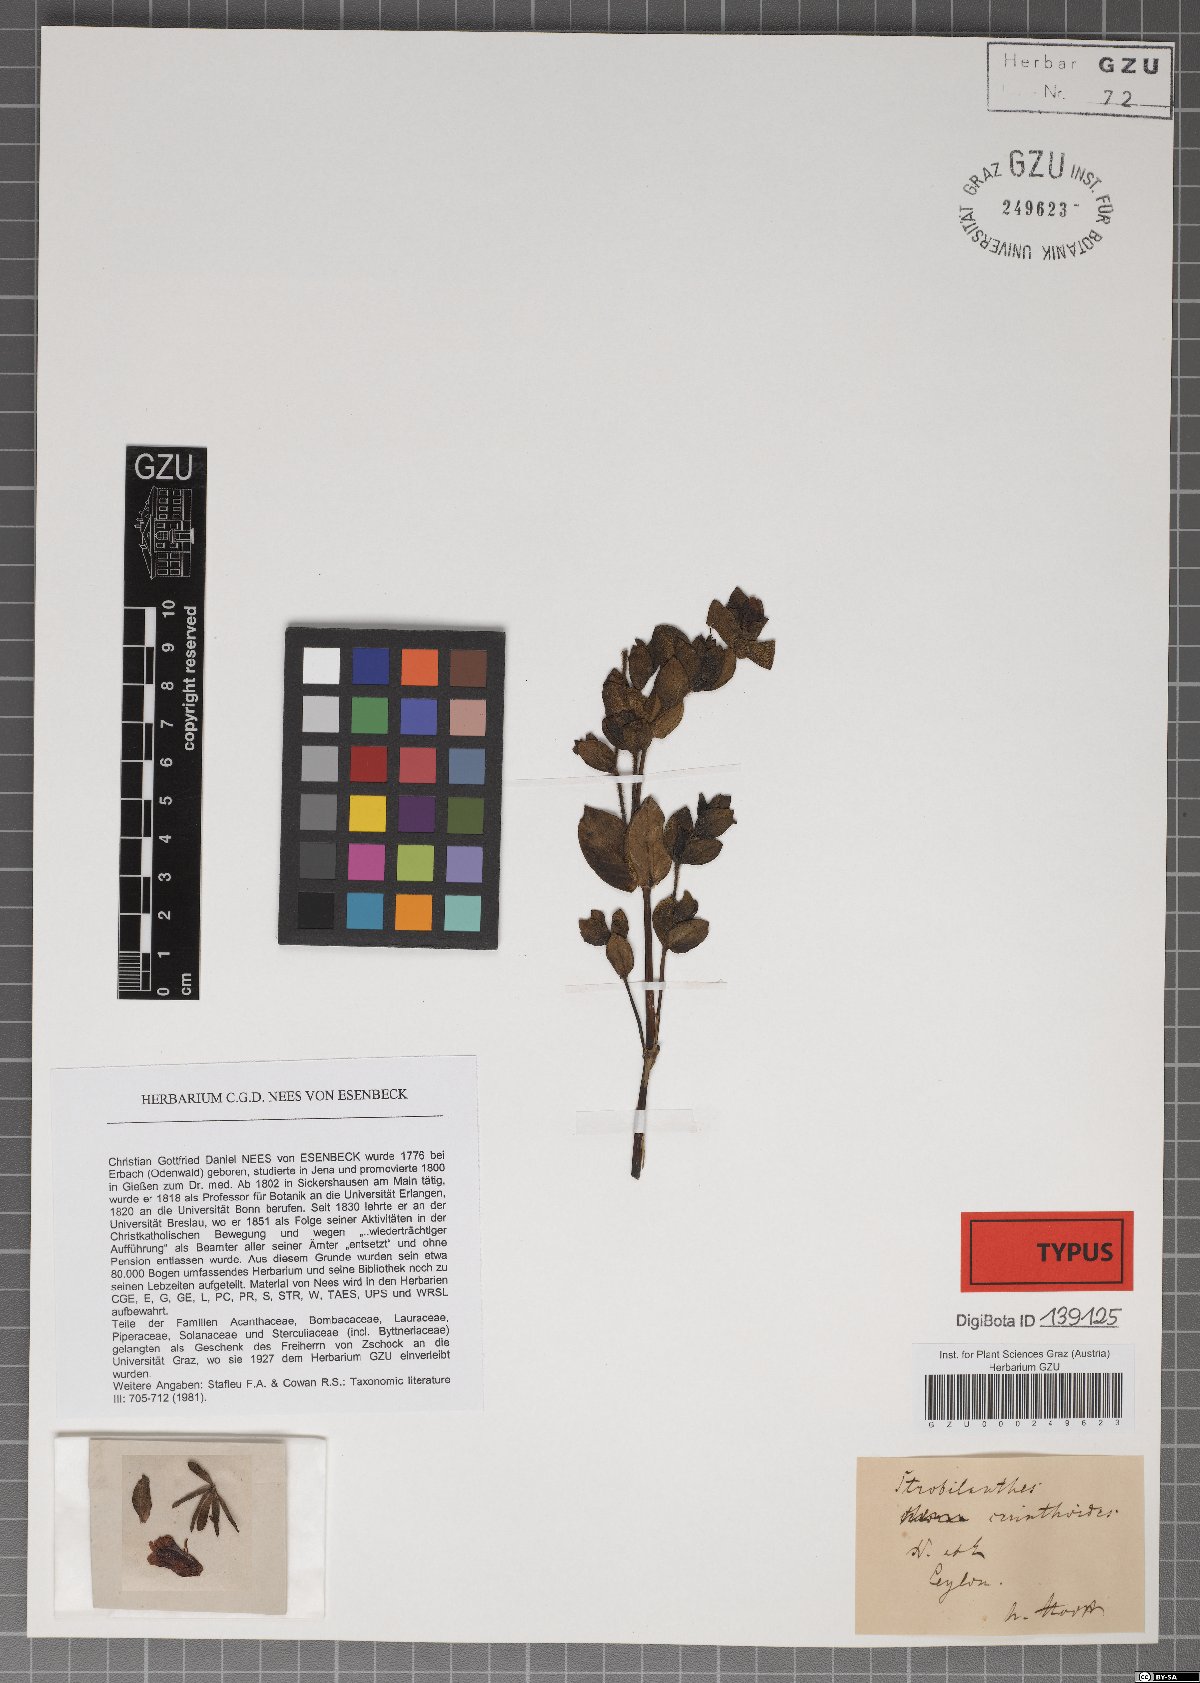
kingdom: Plantae
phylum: Tracheophyta
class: Magnoliopsida
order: Lamiales
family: Acanthaceae
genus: Strobilanthes
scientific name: Strobilanthes sexennis
